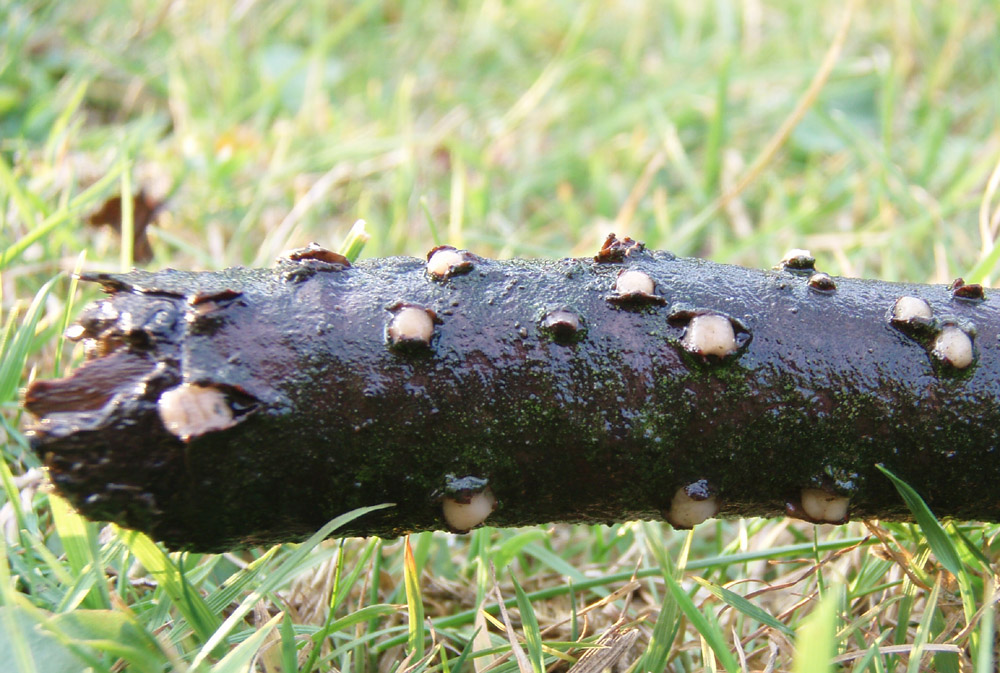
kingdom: Fungi
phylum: Basidiomycota
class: Pucciniomycetes
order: Platygloeales
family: Platygloeaceae
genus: Platygloea
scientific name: Platygloea disciformis
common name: linde-slimklat
